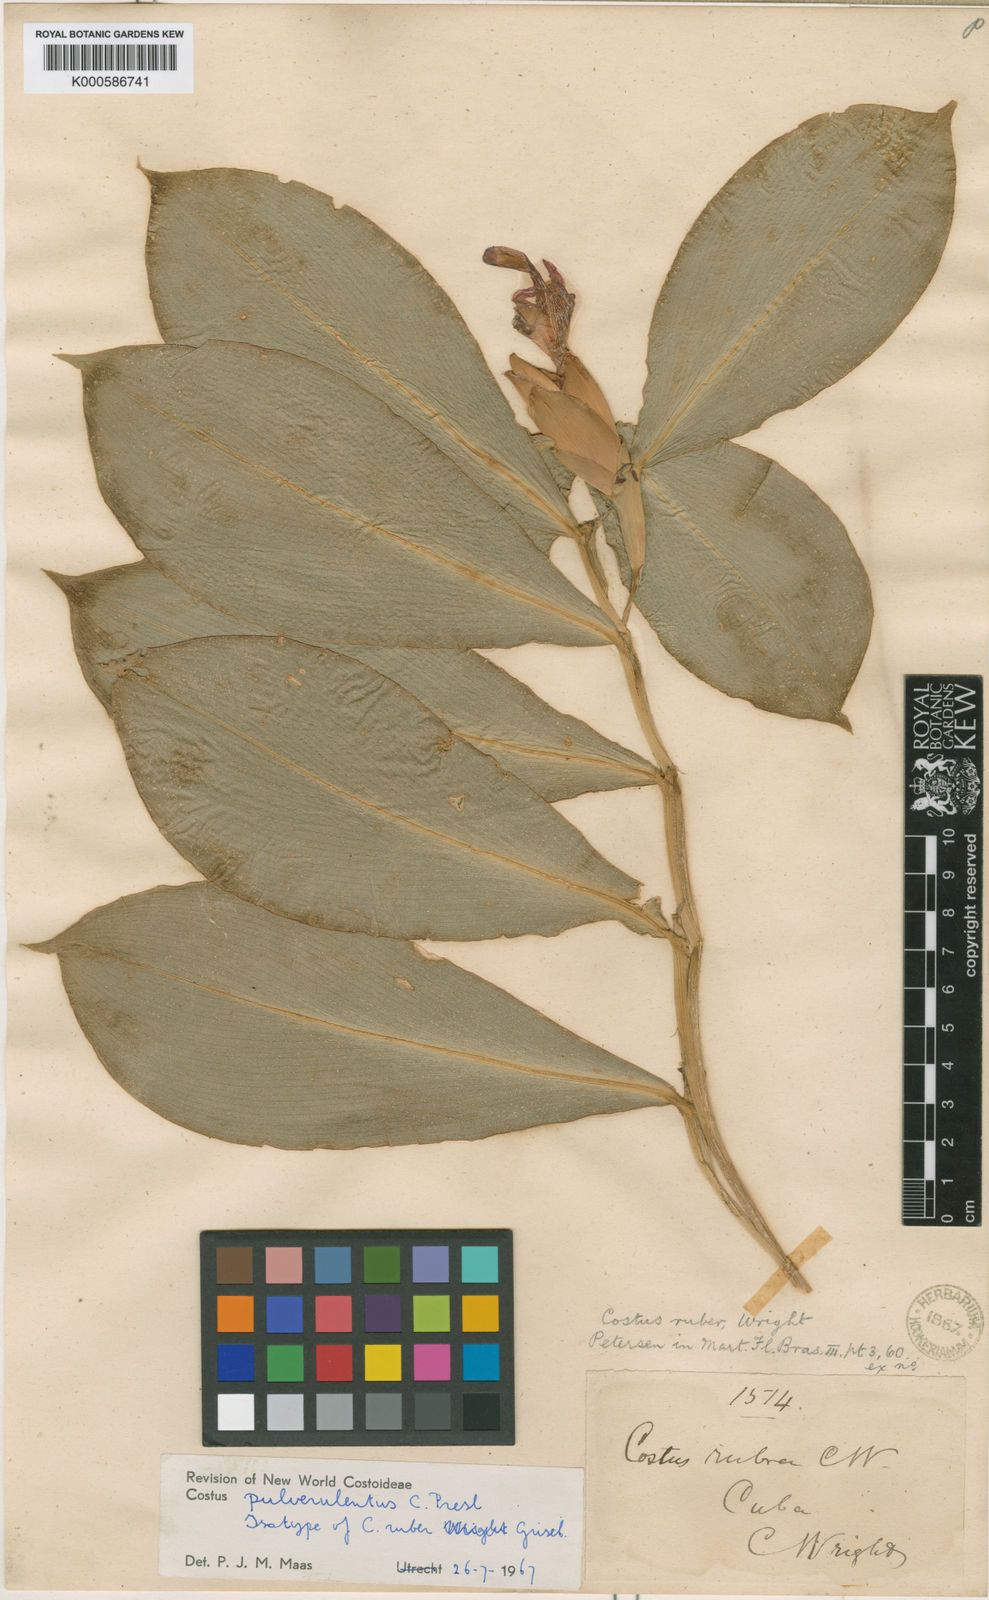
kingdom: Plantae
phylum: Tracheophyta
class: Liliopsida
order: Zingiberales
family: Costaceae
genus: Costus
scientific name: Costus pulverulentus
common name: Spiral ginger
